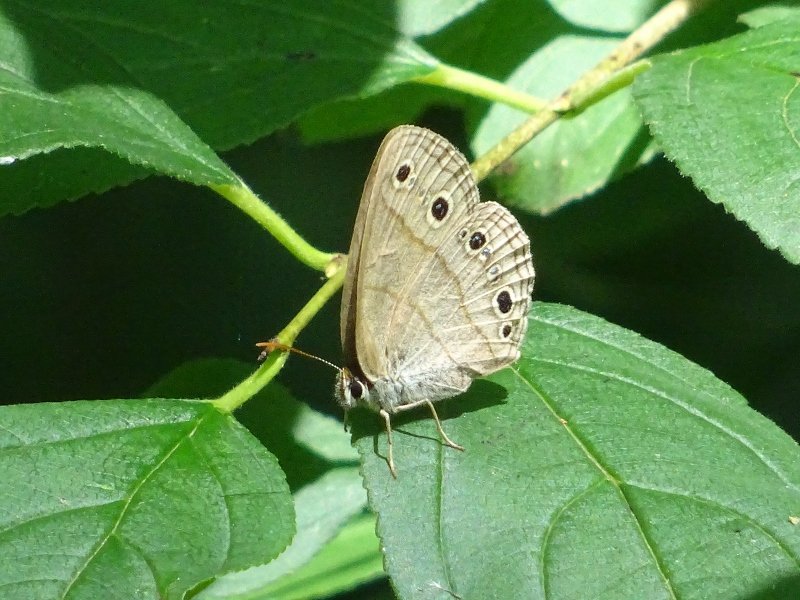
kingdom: Animalia
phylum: Arthropoda
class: Insecta
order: Lepidoptera
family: Nymphalidae
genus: Euptychia
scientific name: Euptychia cymela
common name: Little Wood Satyr
